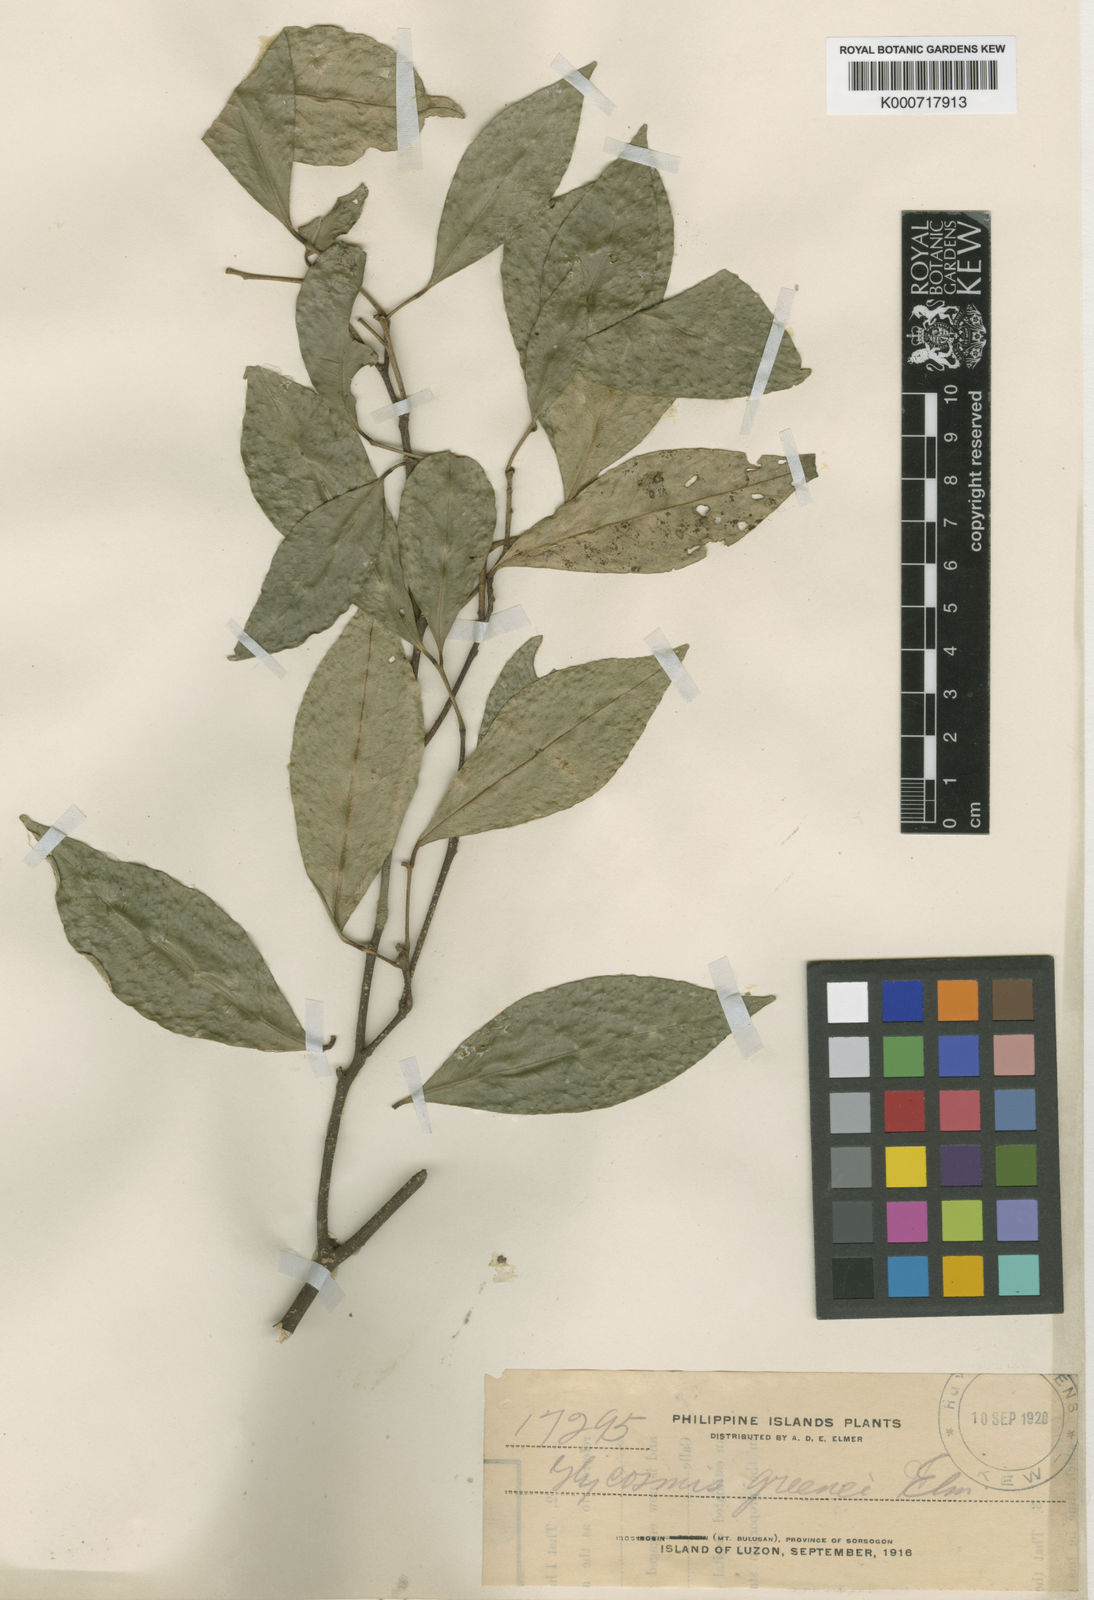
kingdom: Plantae
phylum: Tracheophyta
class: Magnoliopsida
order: Sapindales
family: Rutaceae
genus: Glycosmis
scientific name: Glycosmis greenei
